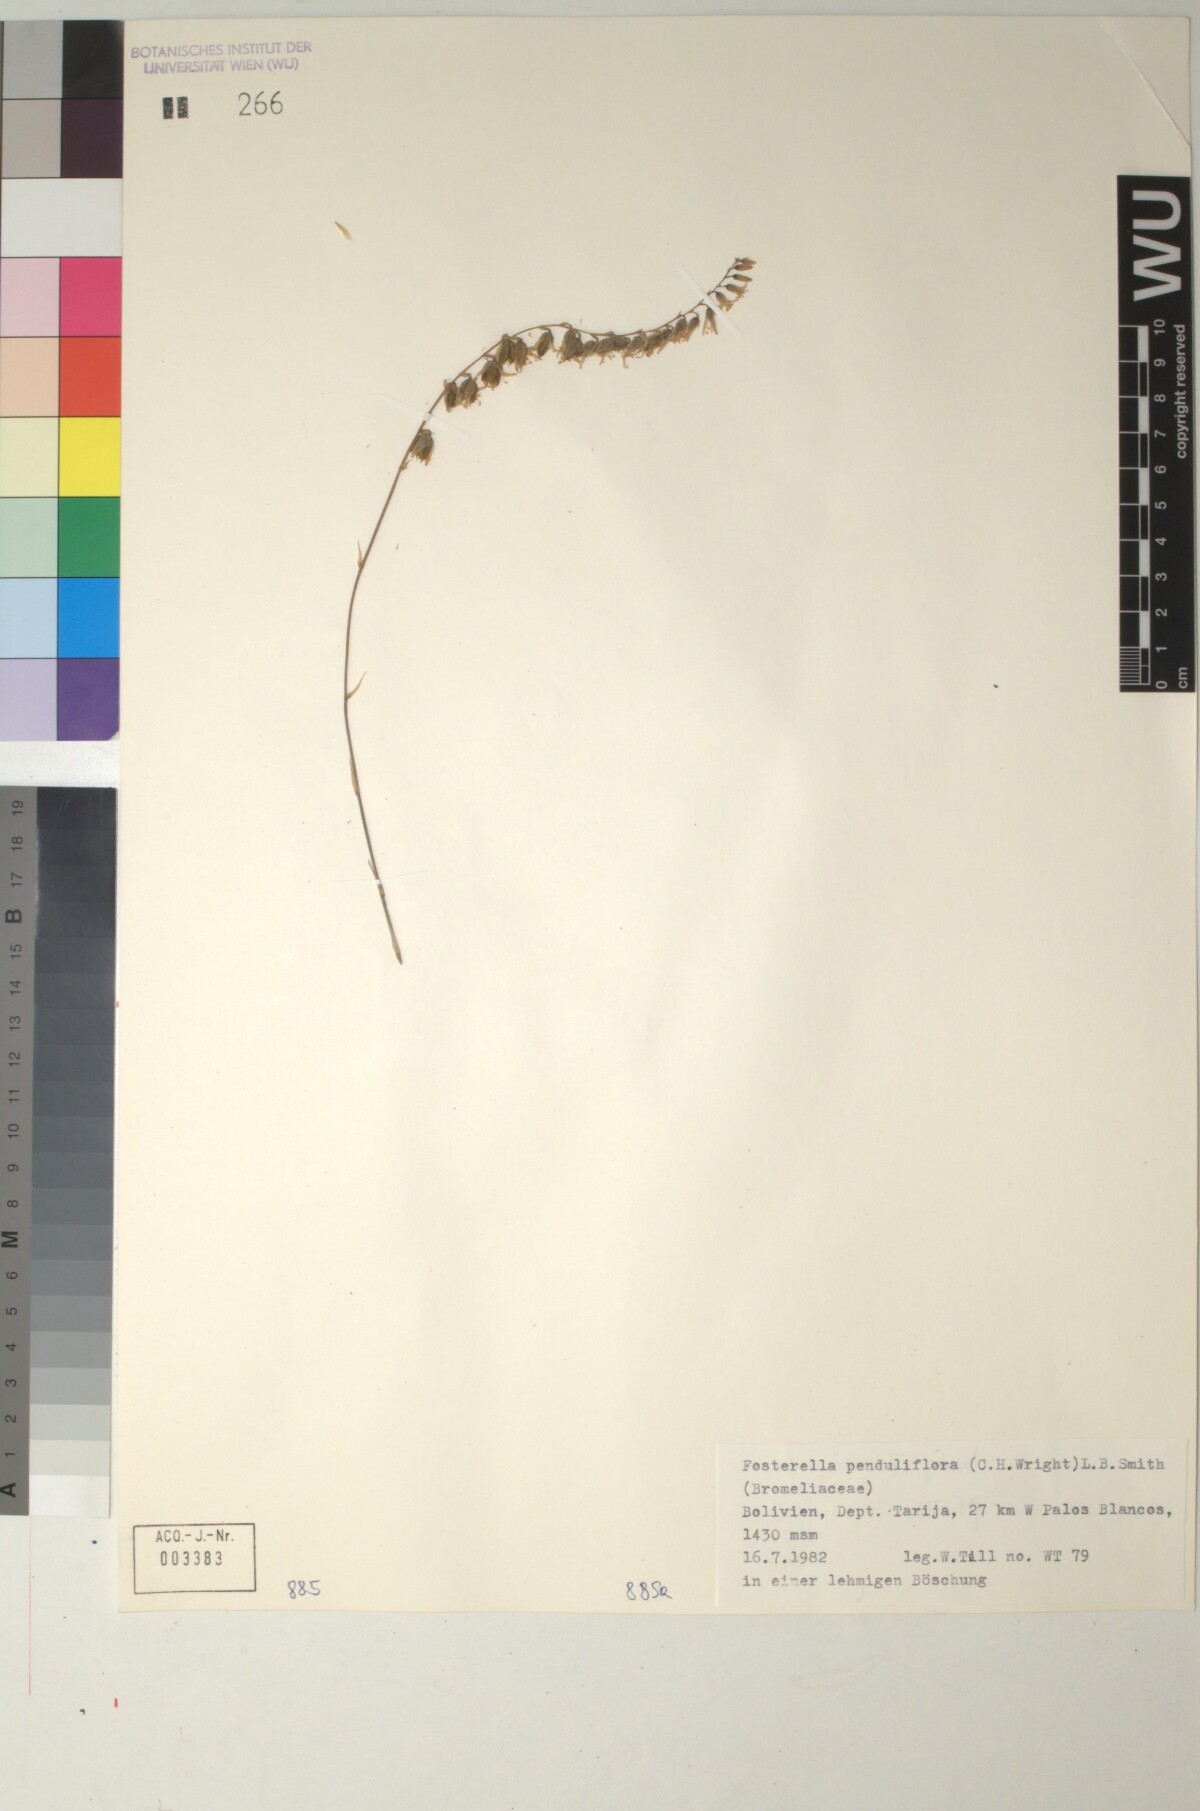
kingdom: Plantae
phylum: Tracheophyta
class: Liliopsida
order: Poales
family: Bromeliaceae
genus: Fosterella
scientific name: Fosterella penduliflora
